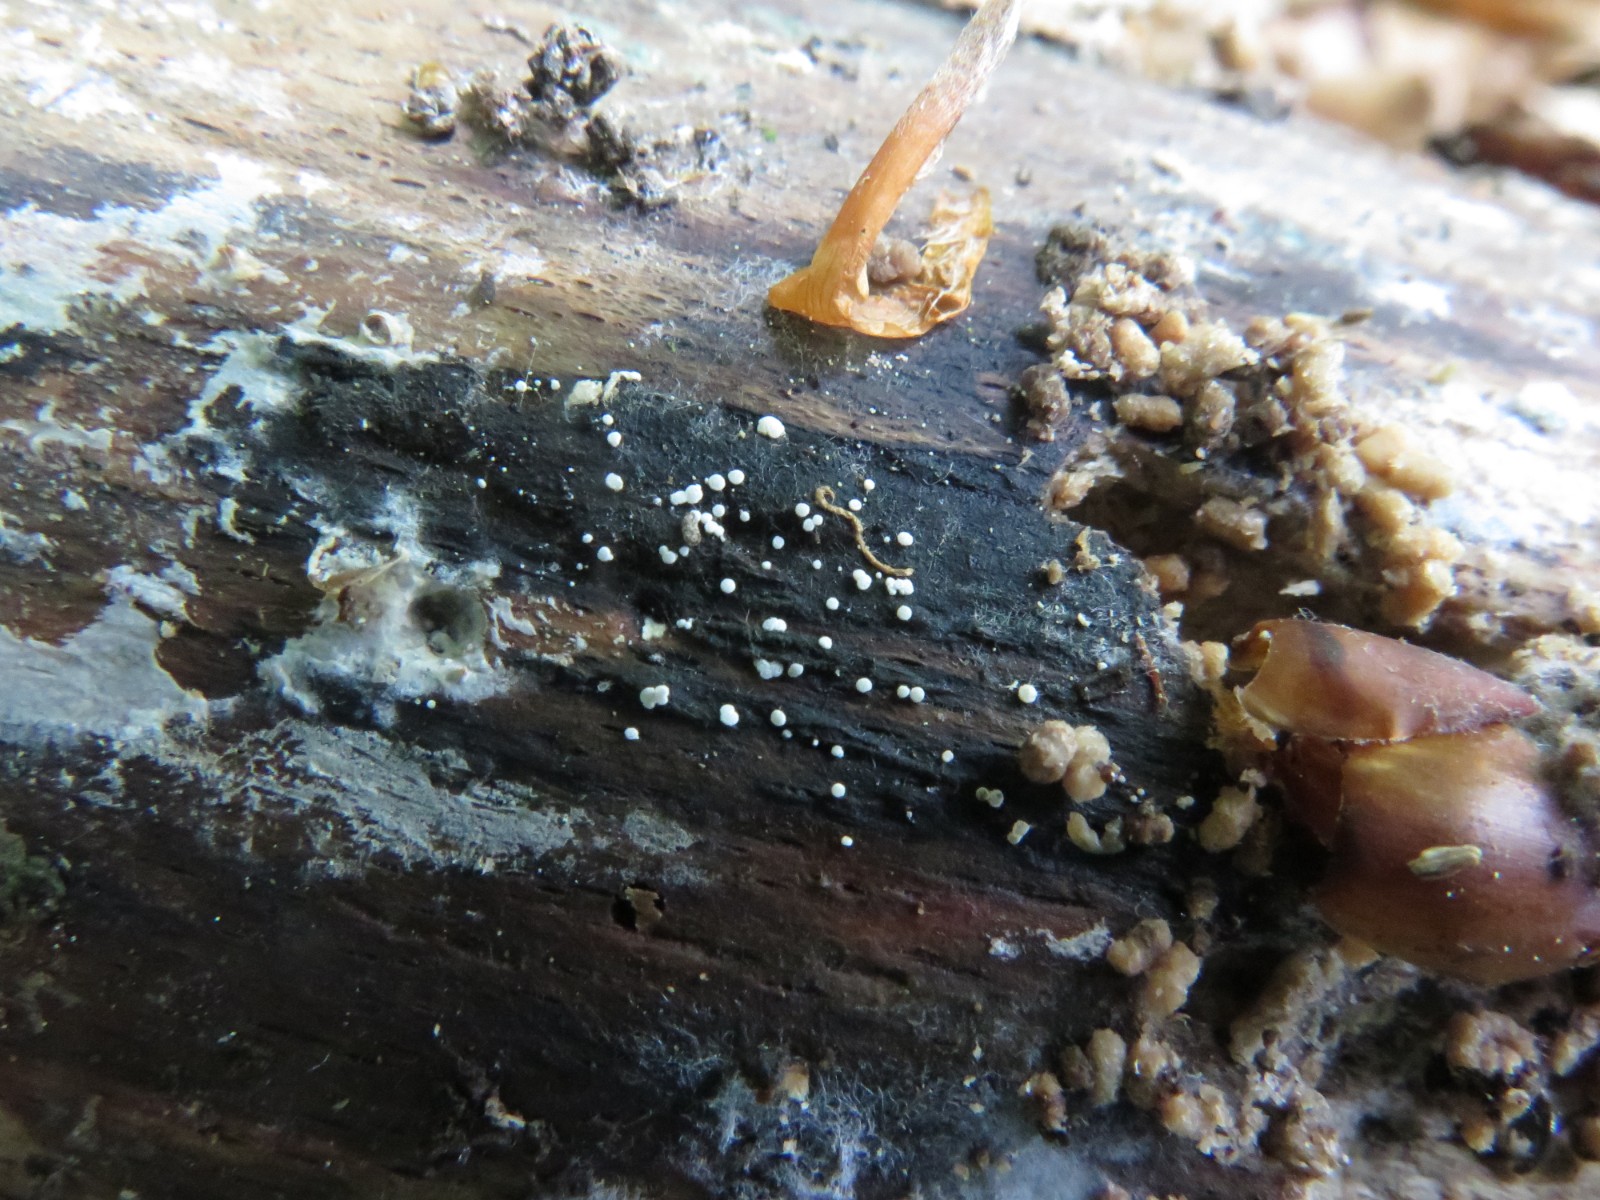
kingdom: Fungi
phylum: Ascomycota
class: Leotiomycetes
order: Helotiales
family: Hyaloscyphaceae
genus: Polydesmia
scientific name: Polydesmia pruinosa
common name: dunskive
